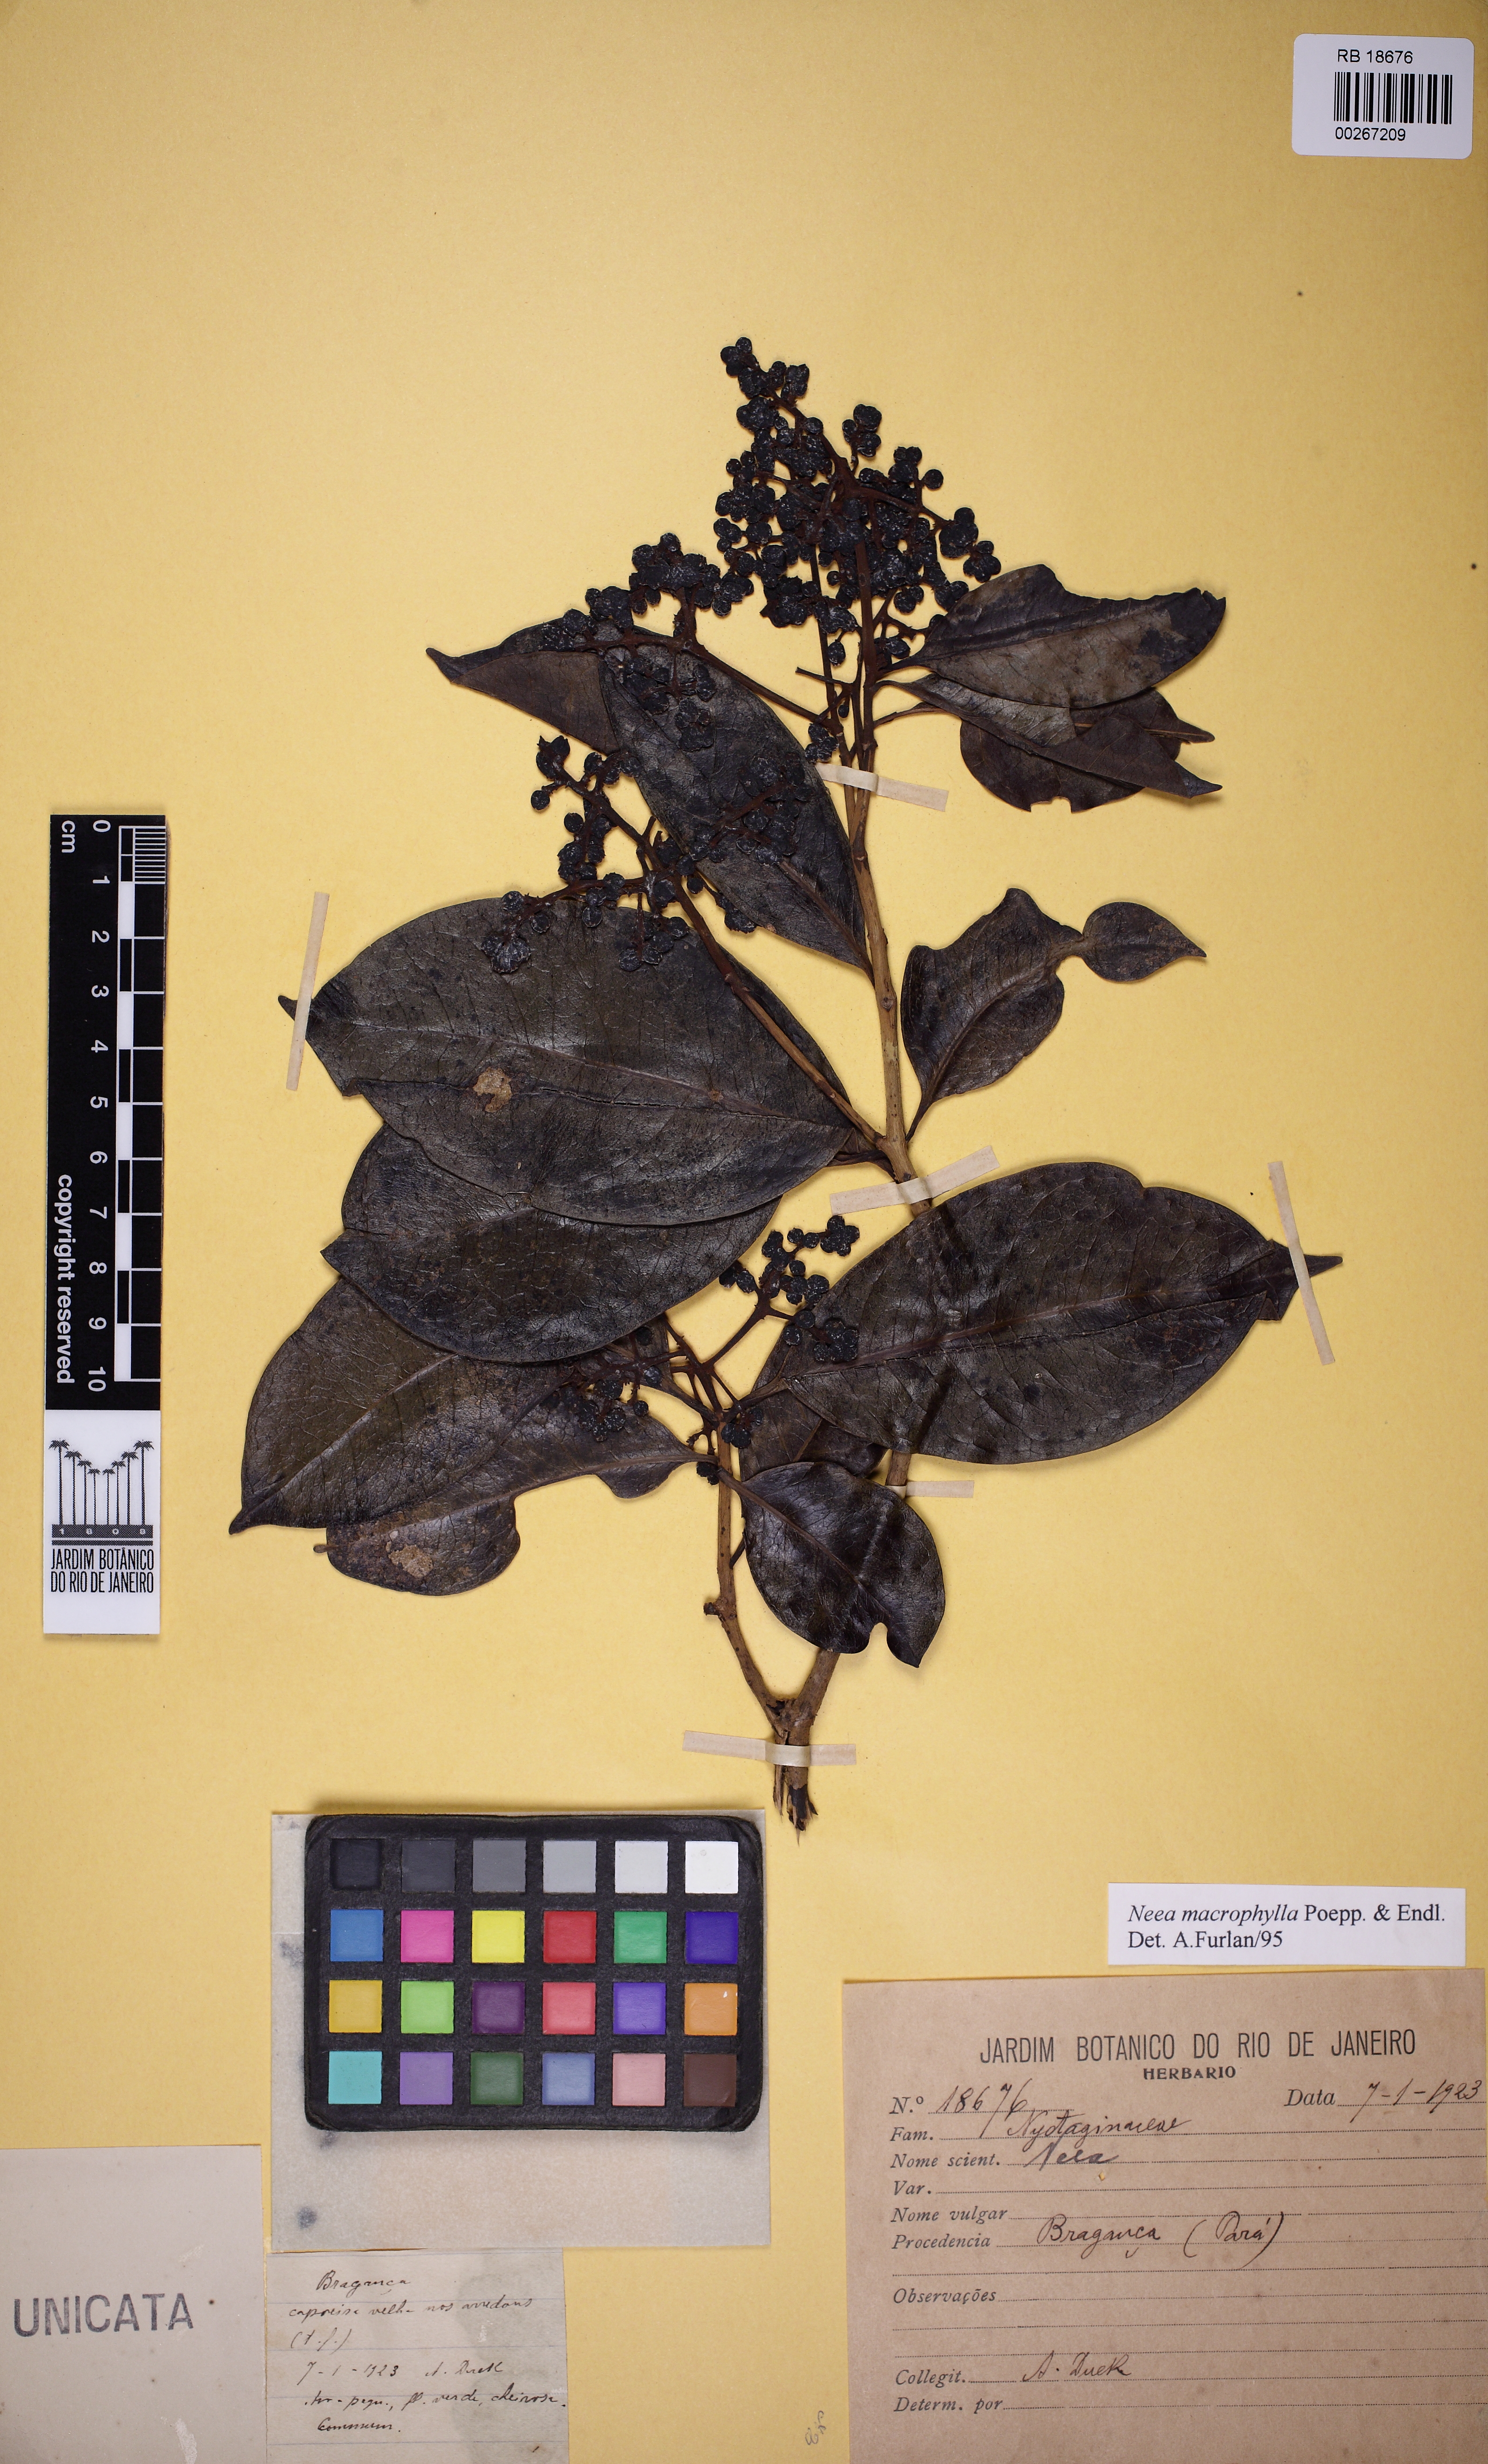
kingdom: Plantae
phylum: Tracheophyta
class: Magnoliopsida
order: Caryophyllales
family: Nyctaginaceae
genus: Neea
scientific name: Neea macrophylla
